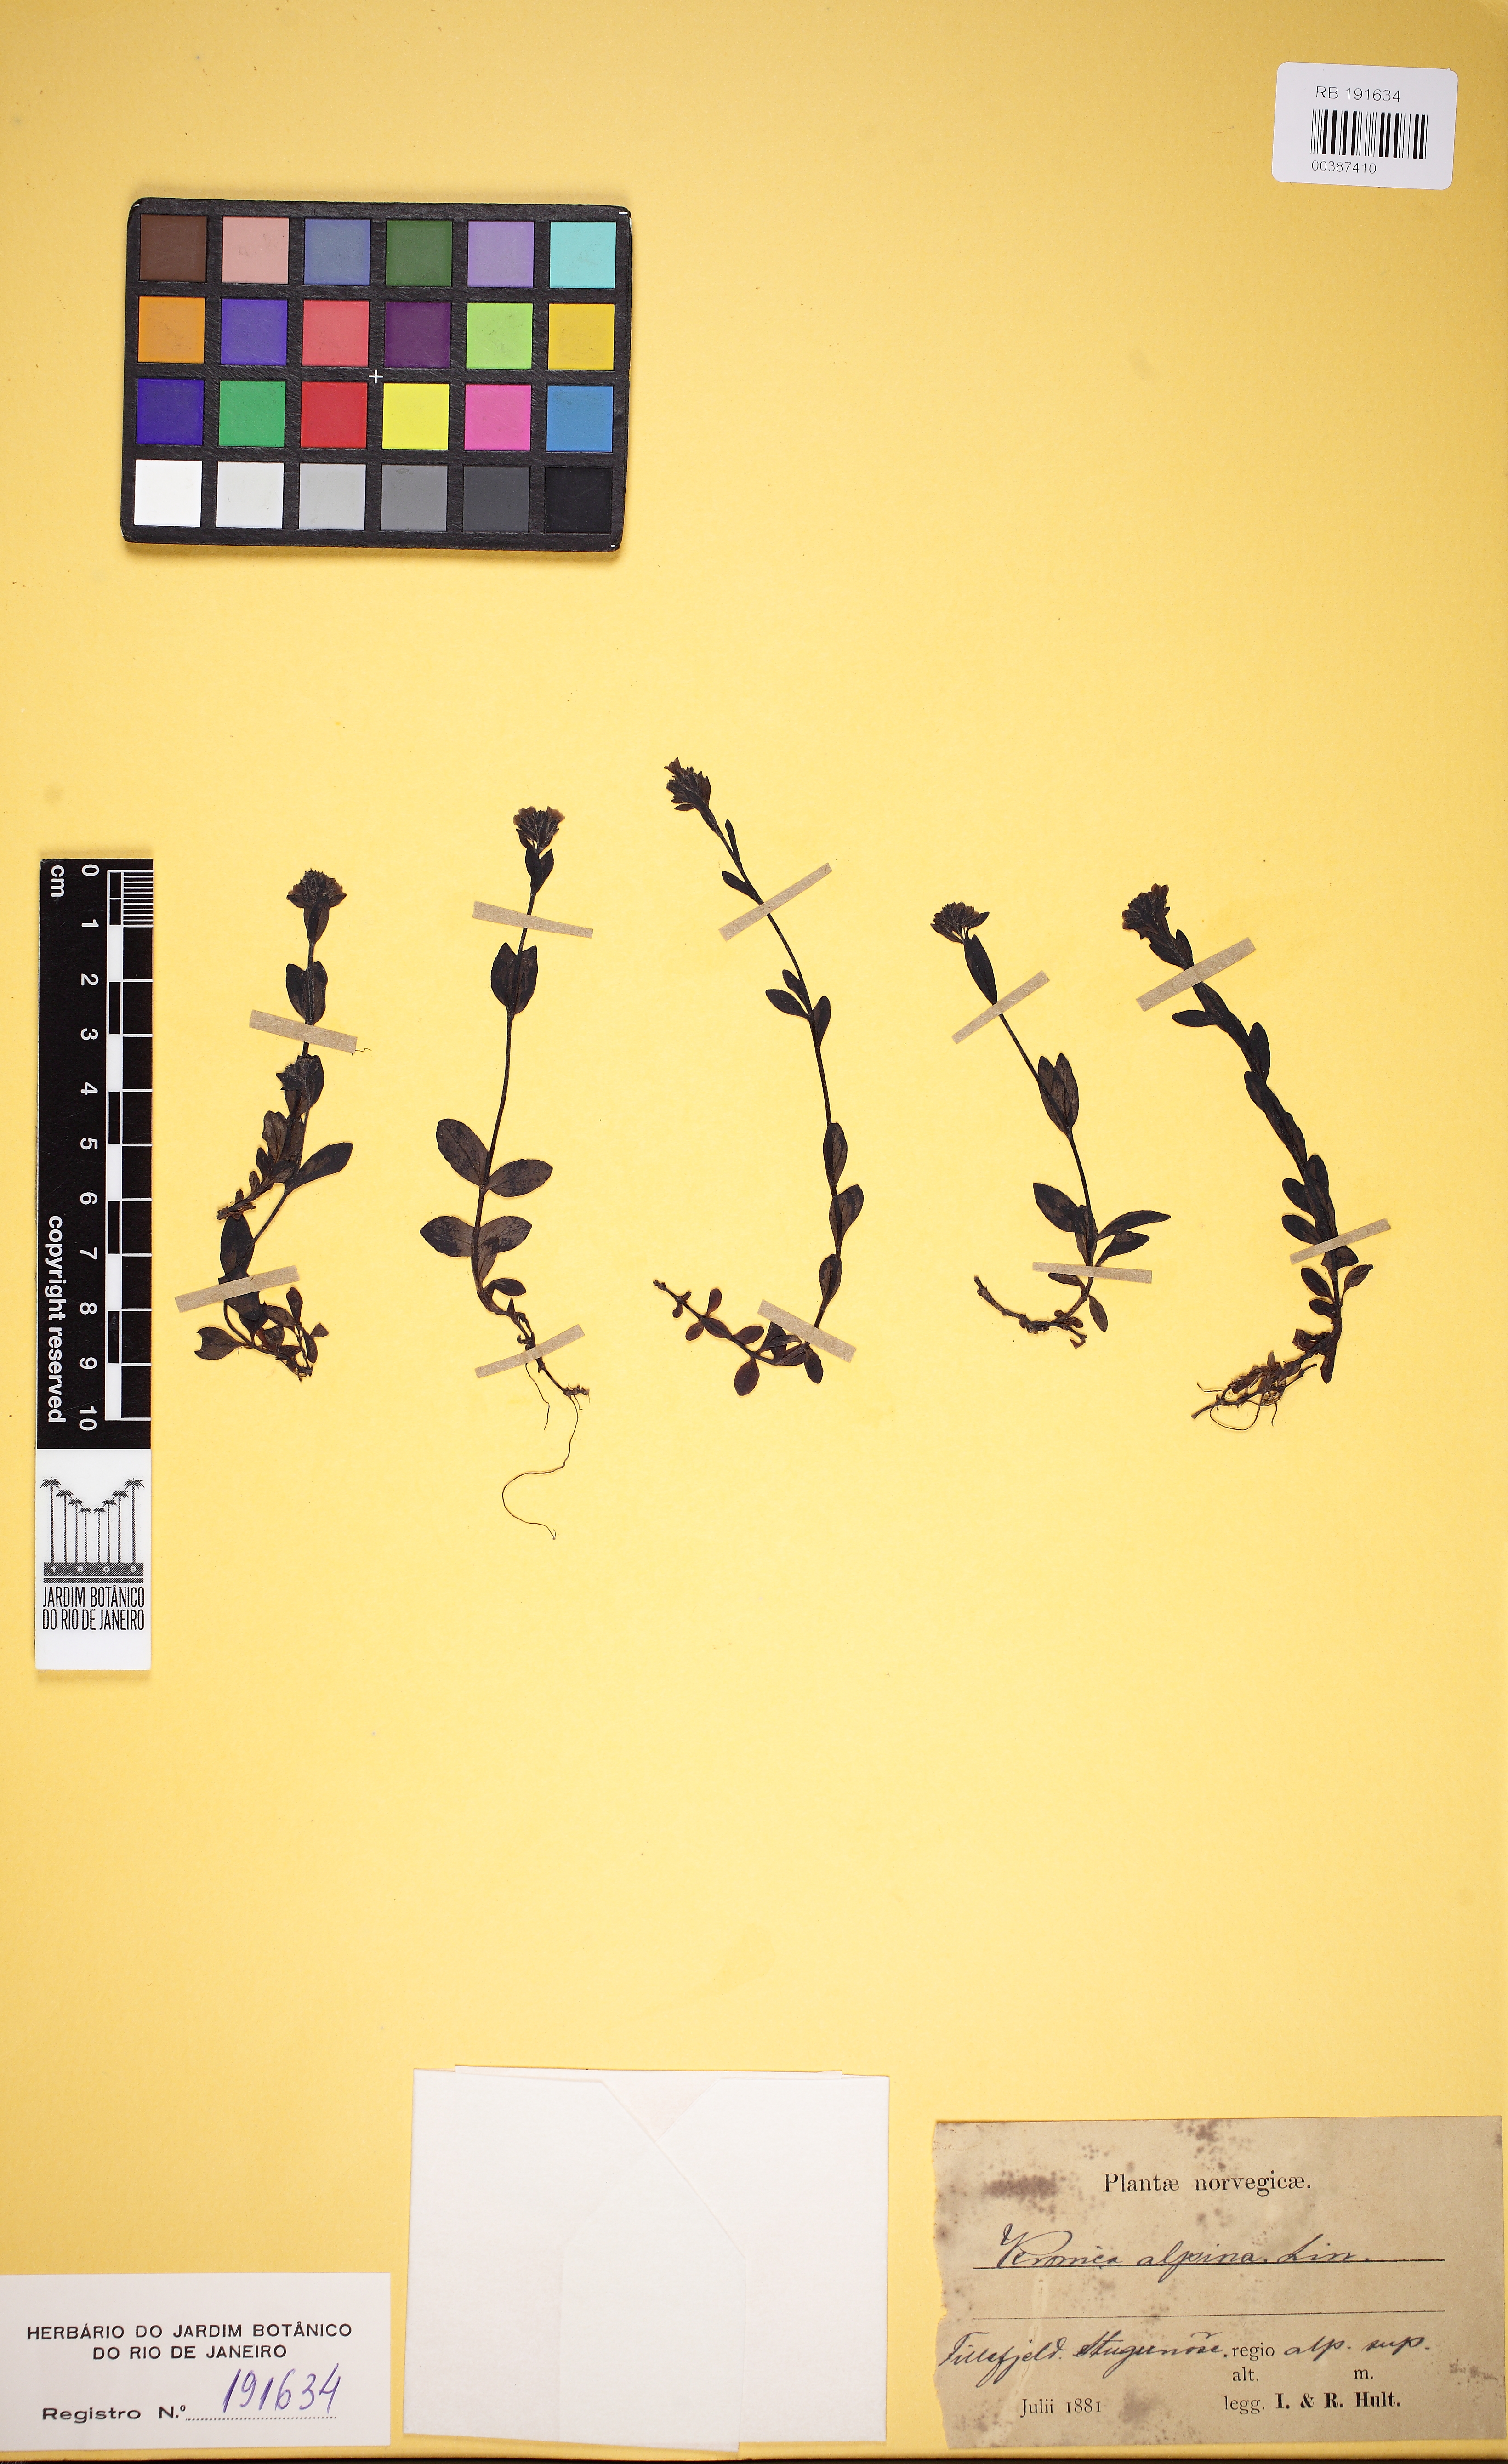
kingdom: Plantae
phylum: Tracheophyta
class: Magnoliopsida
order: Lamiales
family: Scrophulariaceae
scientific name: Scrophulariaceae
